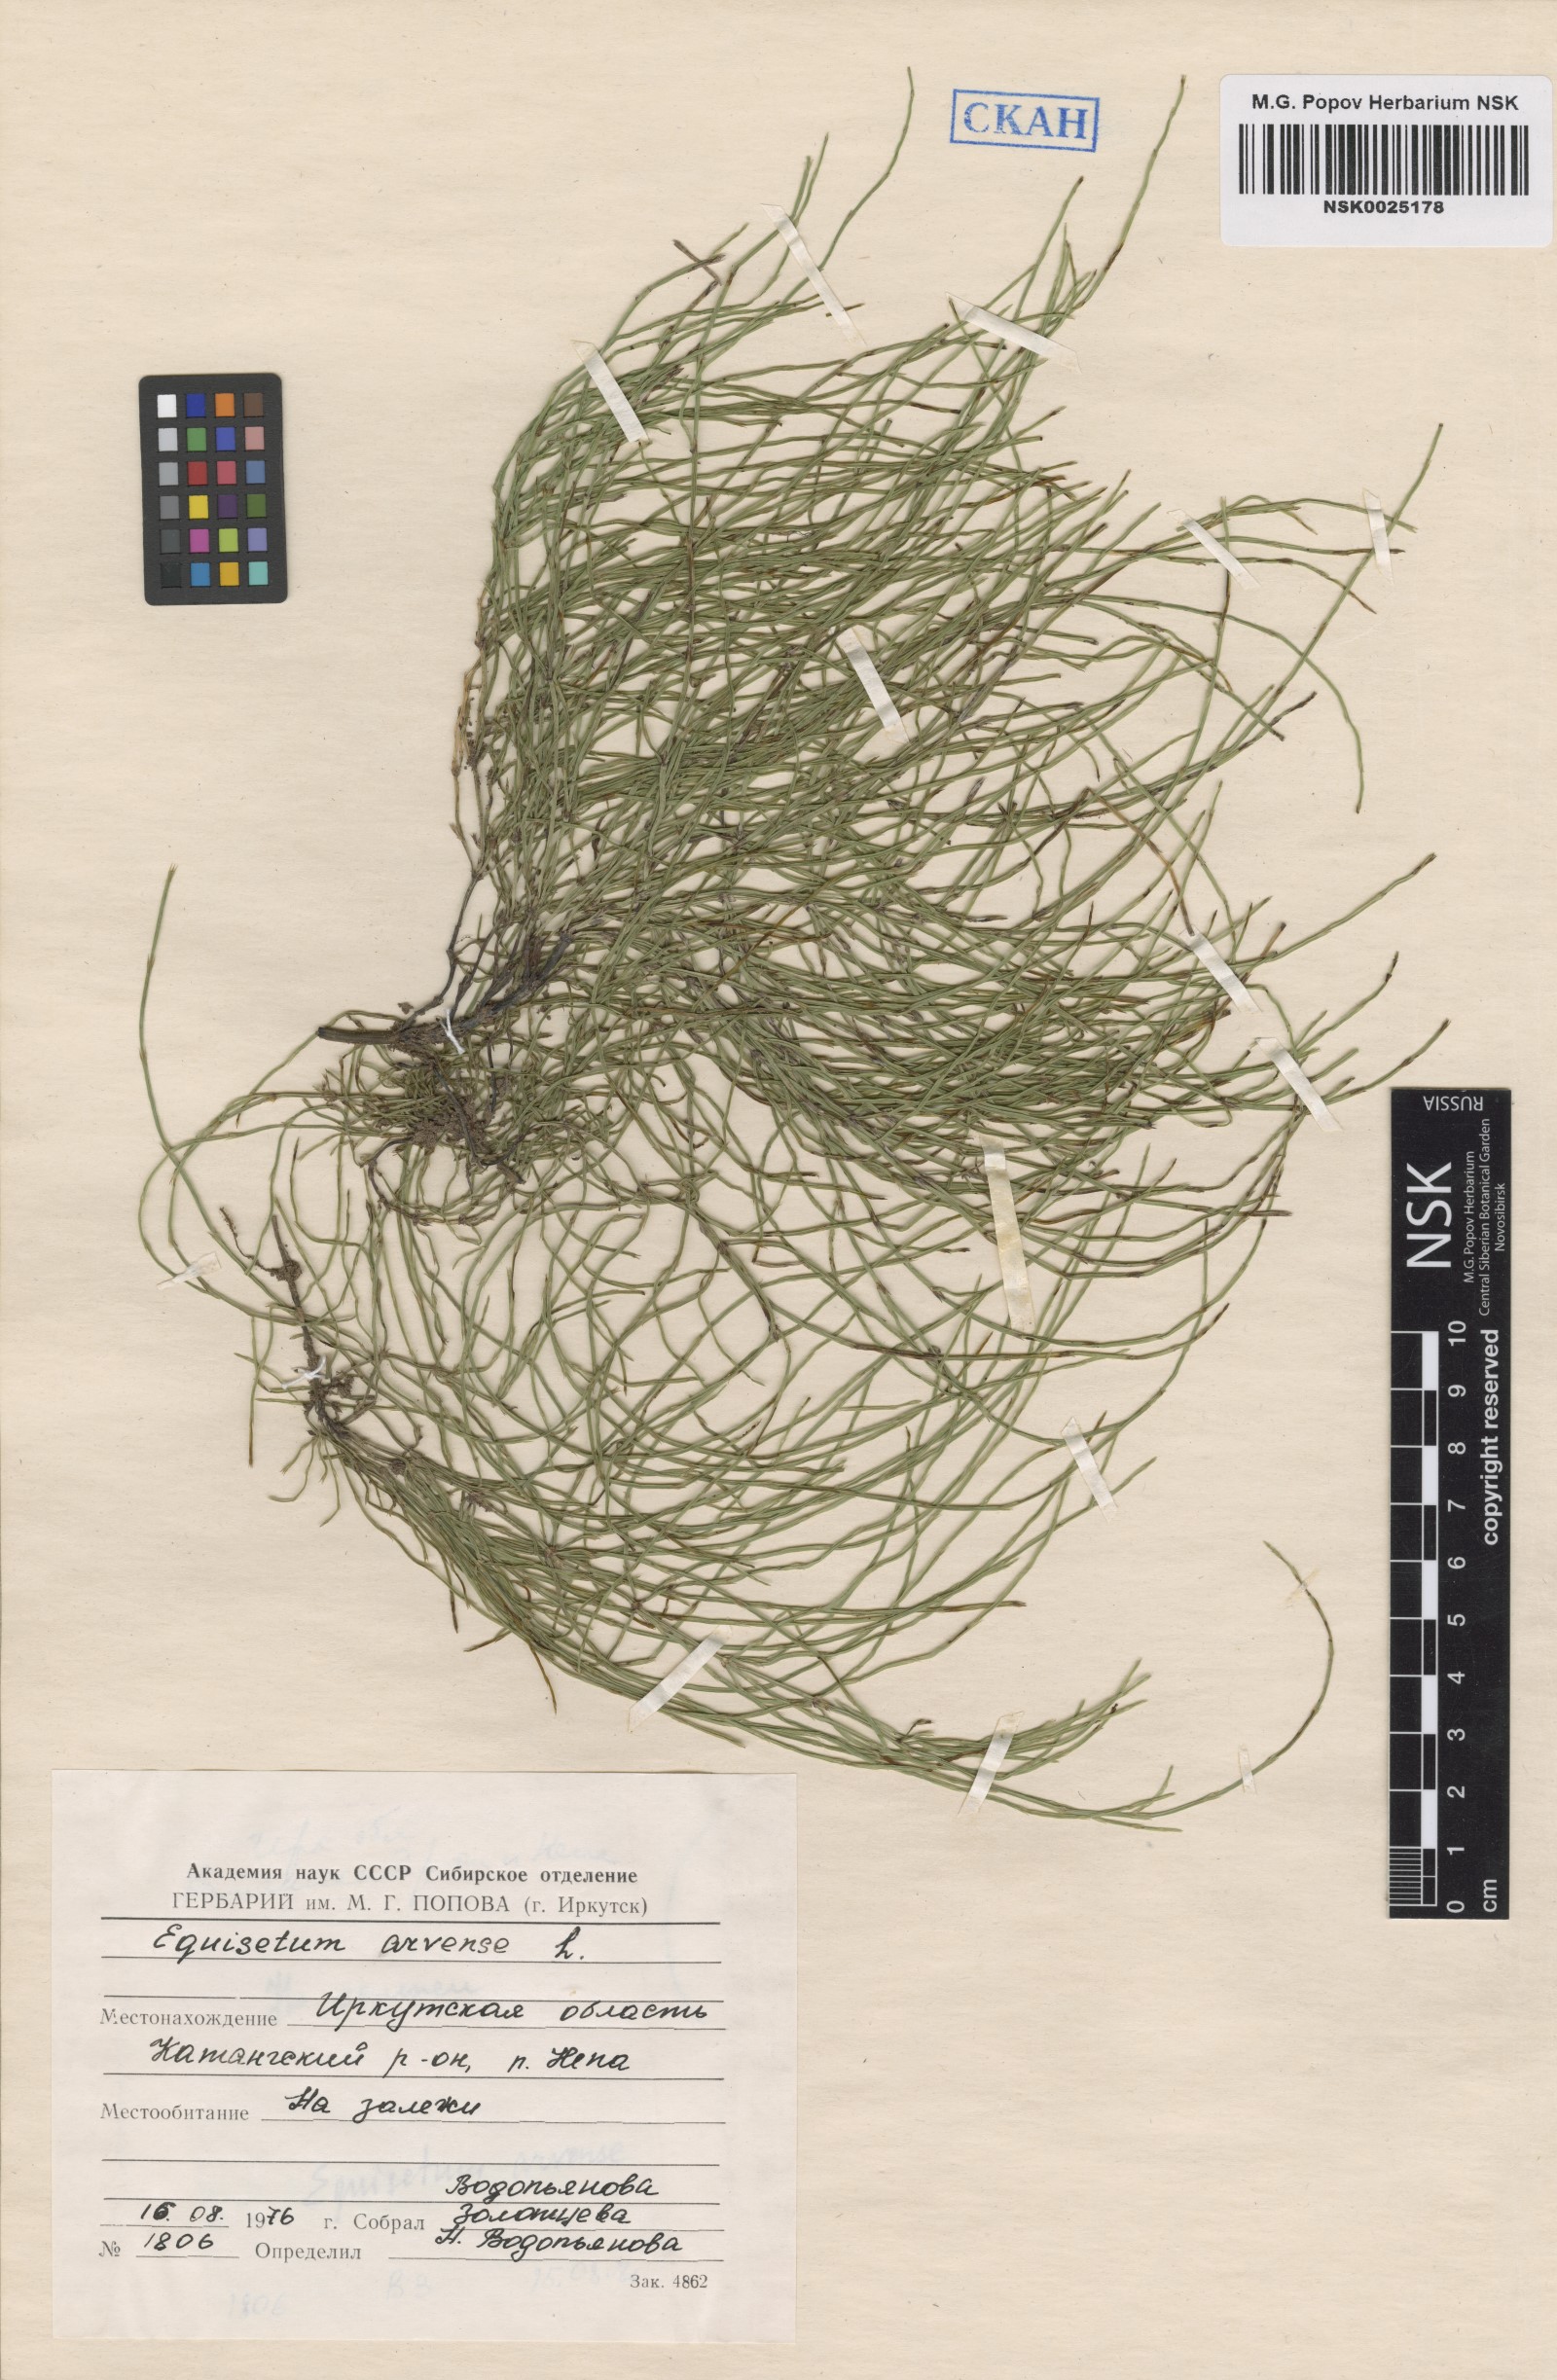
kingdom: Plantae
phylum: Tracheophyta
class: Polypodiopsida
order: Equisetales
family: Equisetaceae
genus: Equisetum
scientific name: Equisetum arvense
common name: Field horsetail
